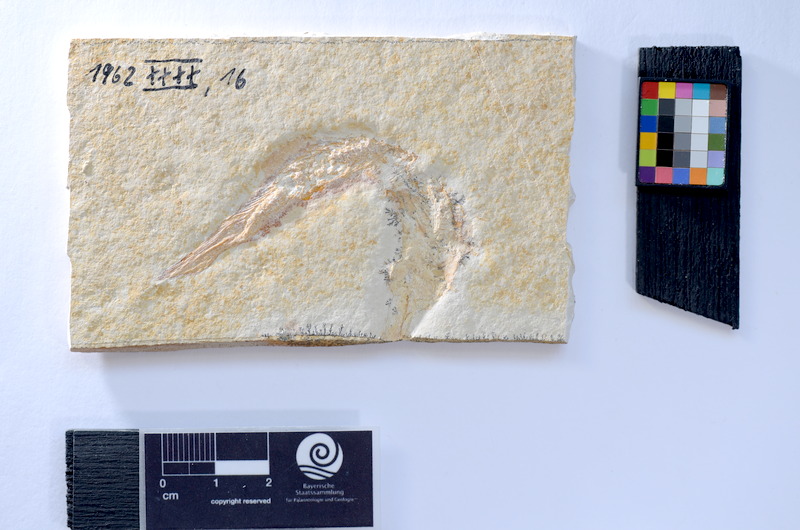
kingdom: Animalia
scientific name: Animalia
